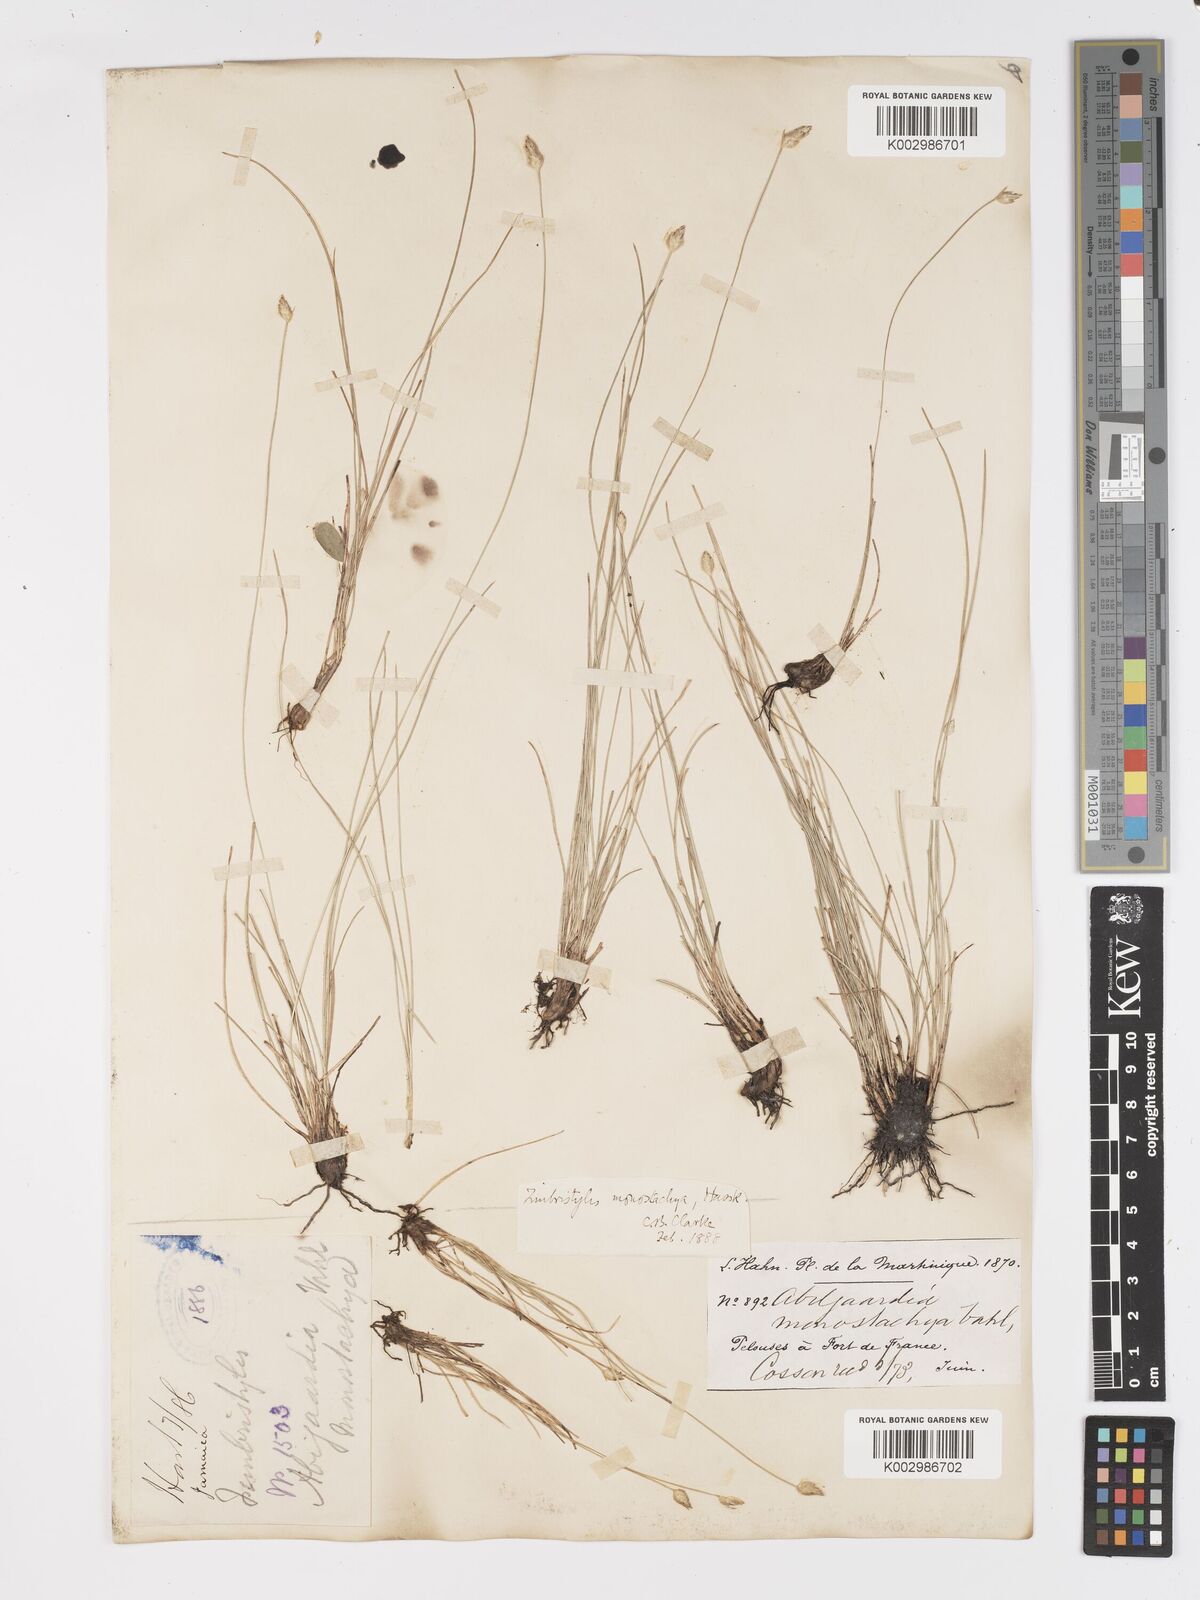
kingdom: Plantae
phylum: Tracheophyta
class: Liliopsida
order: Poales
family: Cyperaceae
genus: Abildgaardia
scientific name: Abildgaardia ovata
